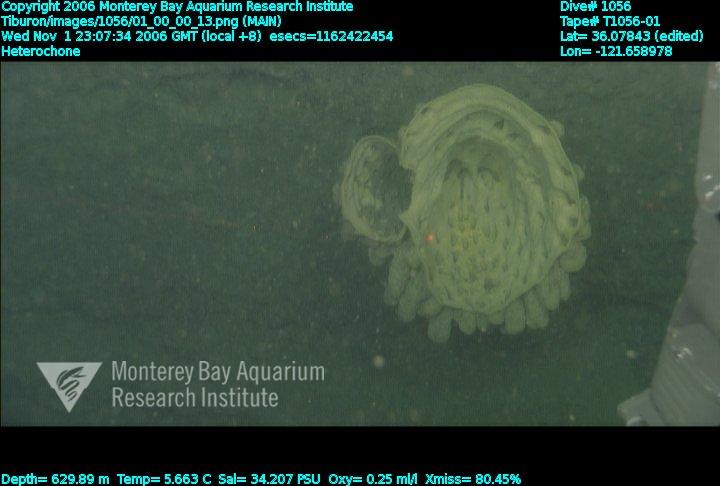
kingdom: Animalia
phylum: Porifera
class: Hexactinellida
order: Sceptrulophora
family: Aphrocallistidae
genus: Heterochone
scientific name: Heterochone
